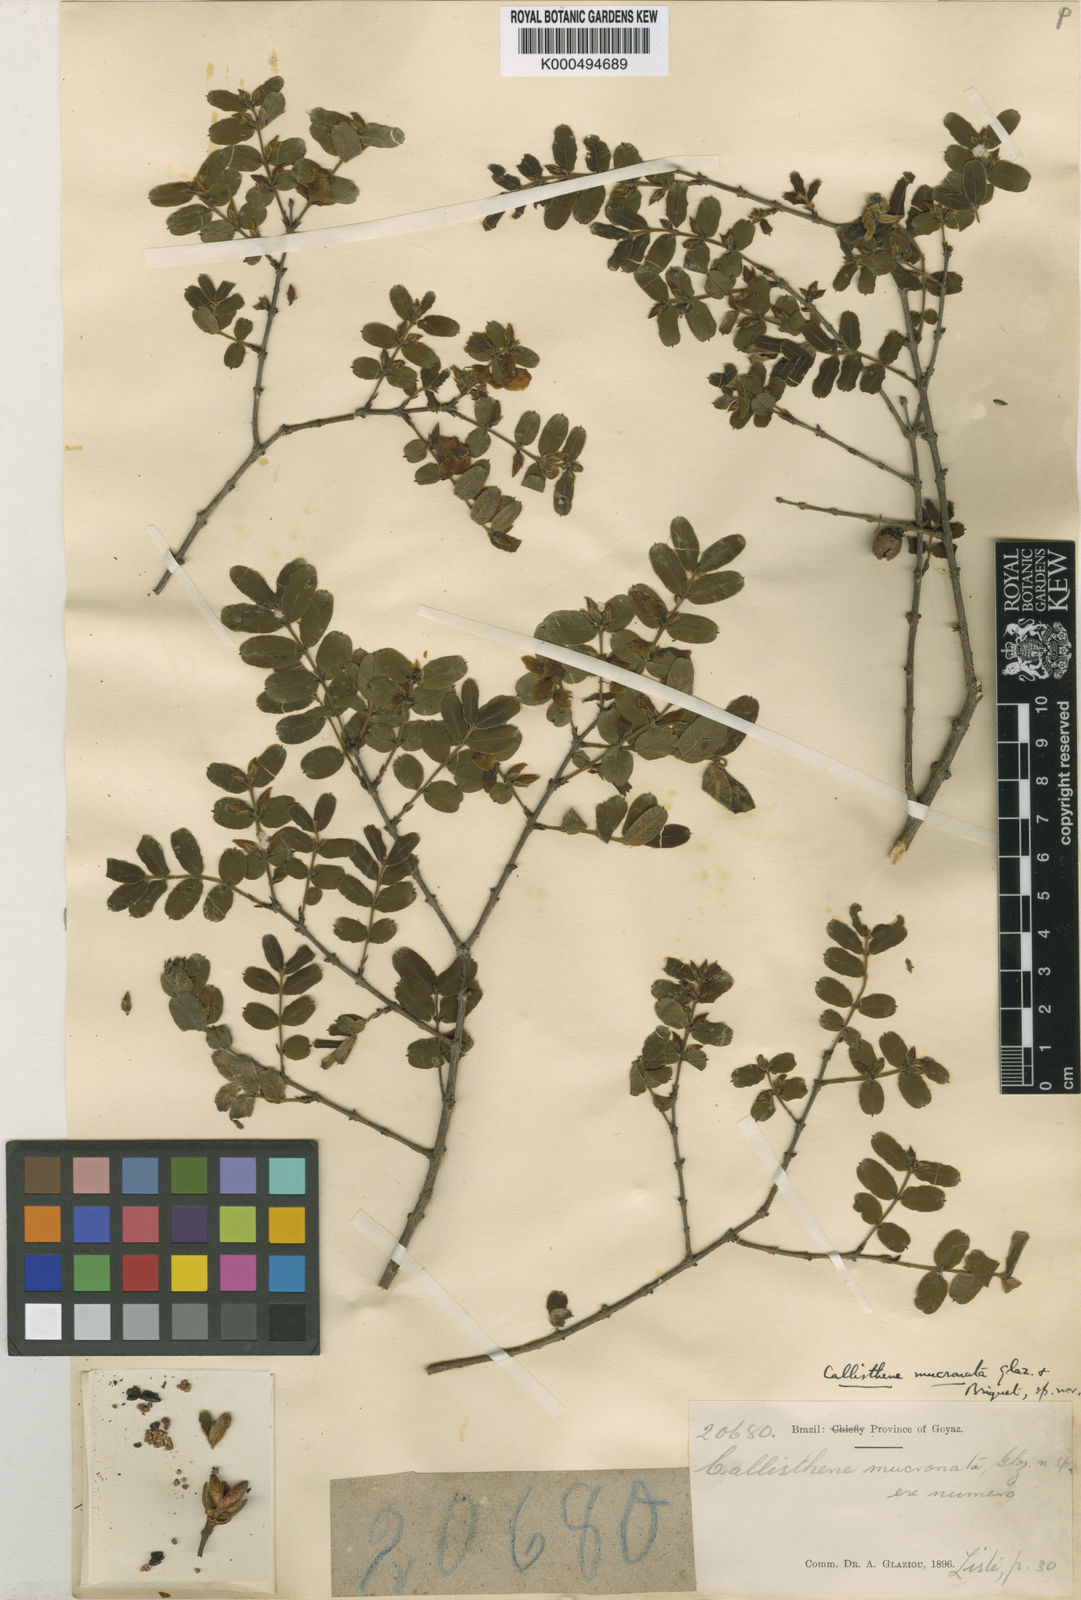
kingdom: Plantae
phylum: Tracheophyta
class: Magnoliopsida
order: Myrtales
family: Vochysiaceae
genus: Callisthene
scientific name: Callisthene major
